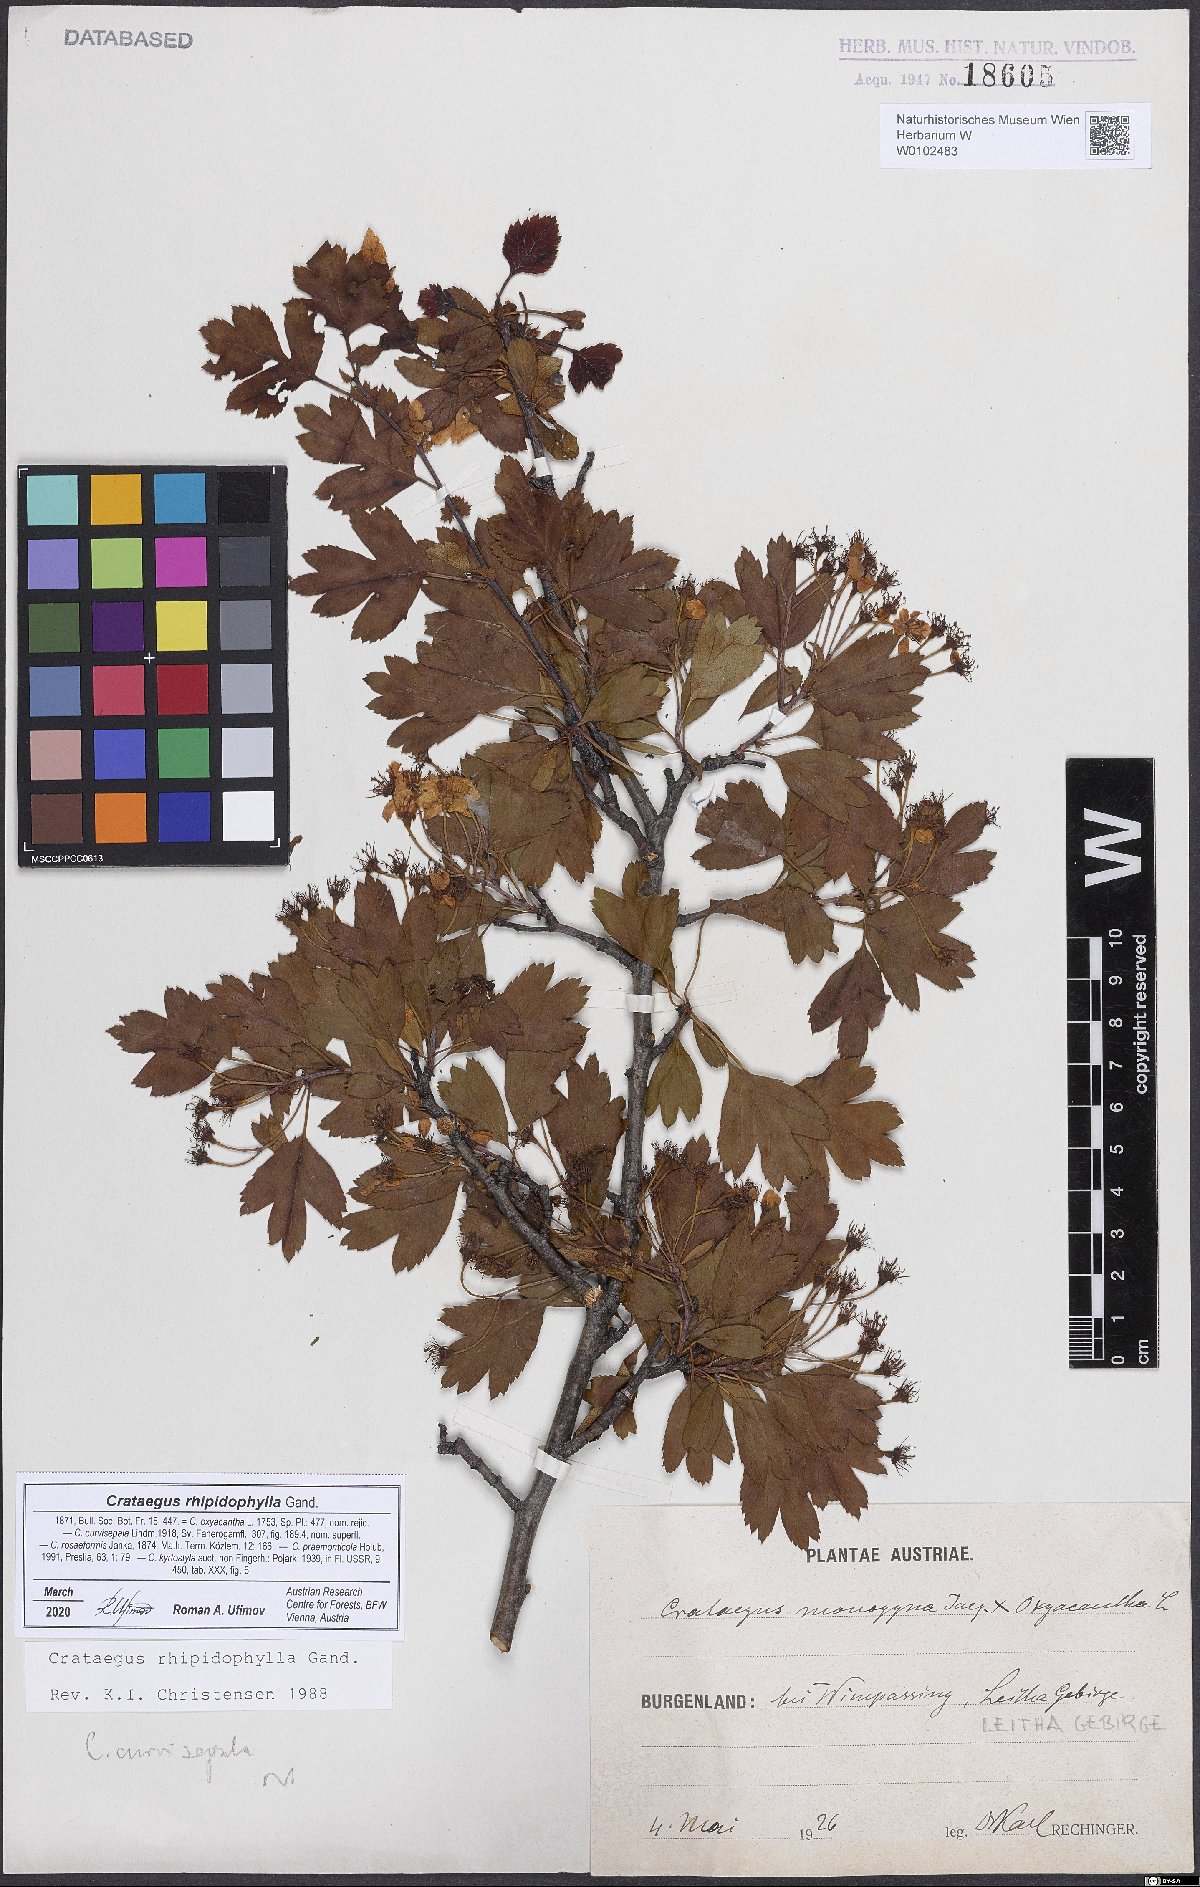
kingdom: Plantae
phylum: Tracheophyta
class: Magnoliopsida
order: Rosales
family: Rosaceae
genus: Crataegus
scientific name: Crataegus rhipidophylla
